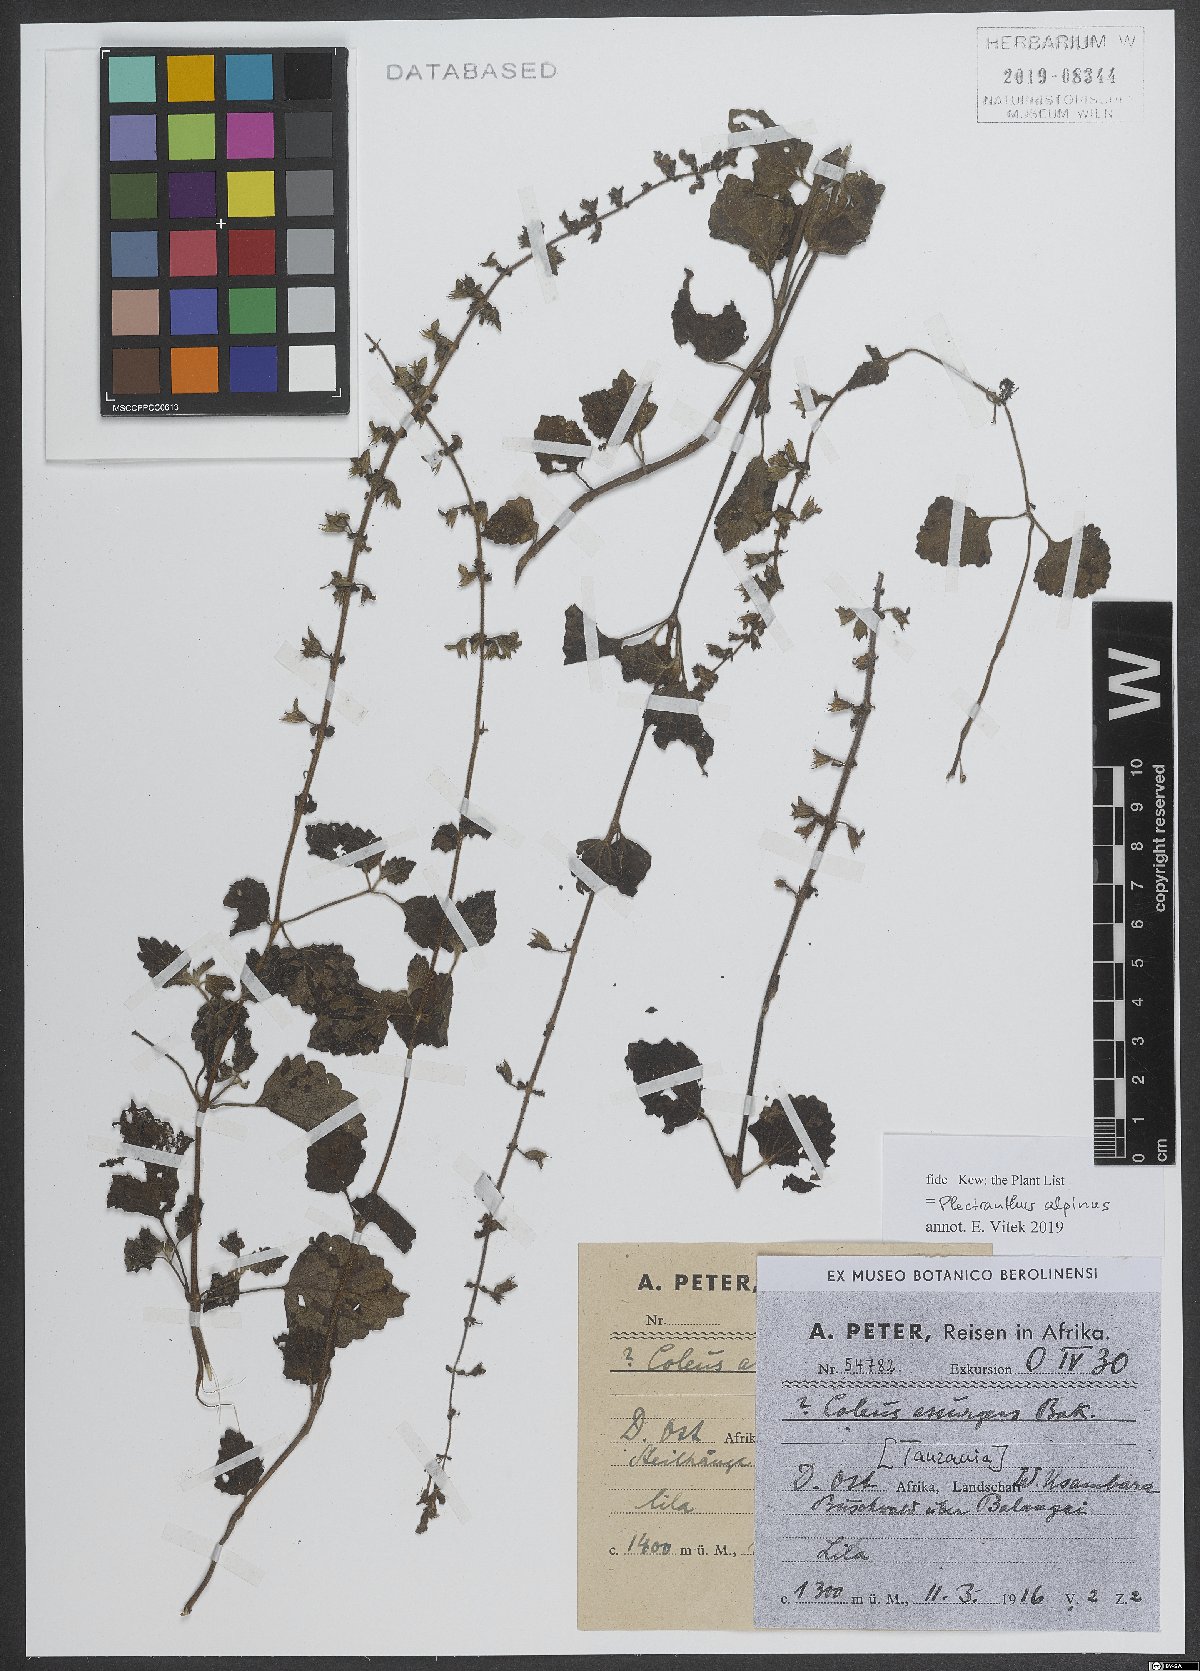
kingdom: Plantae
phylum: Tracheophyta
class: Magnoliopsida
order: Lamiales
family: Lamiaceae
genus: Coleus
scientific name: Coleus alpinus
